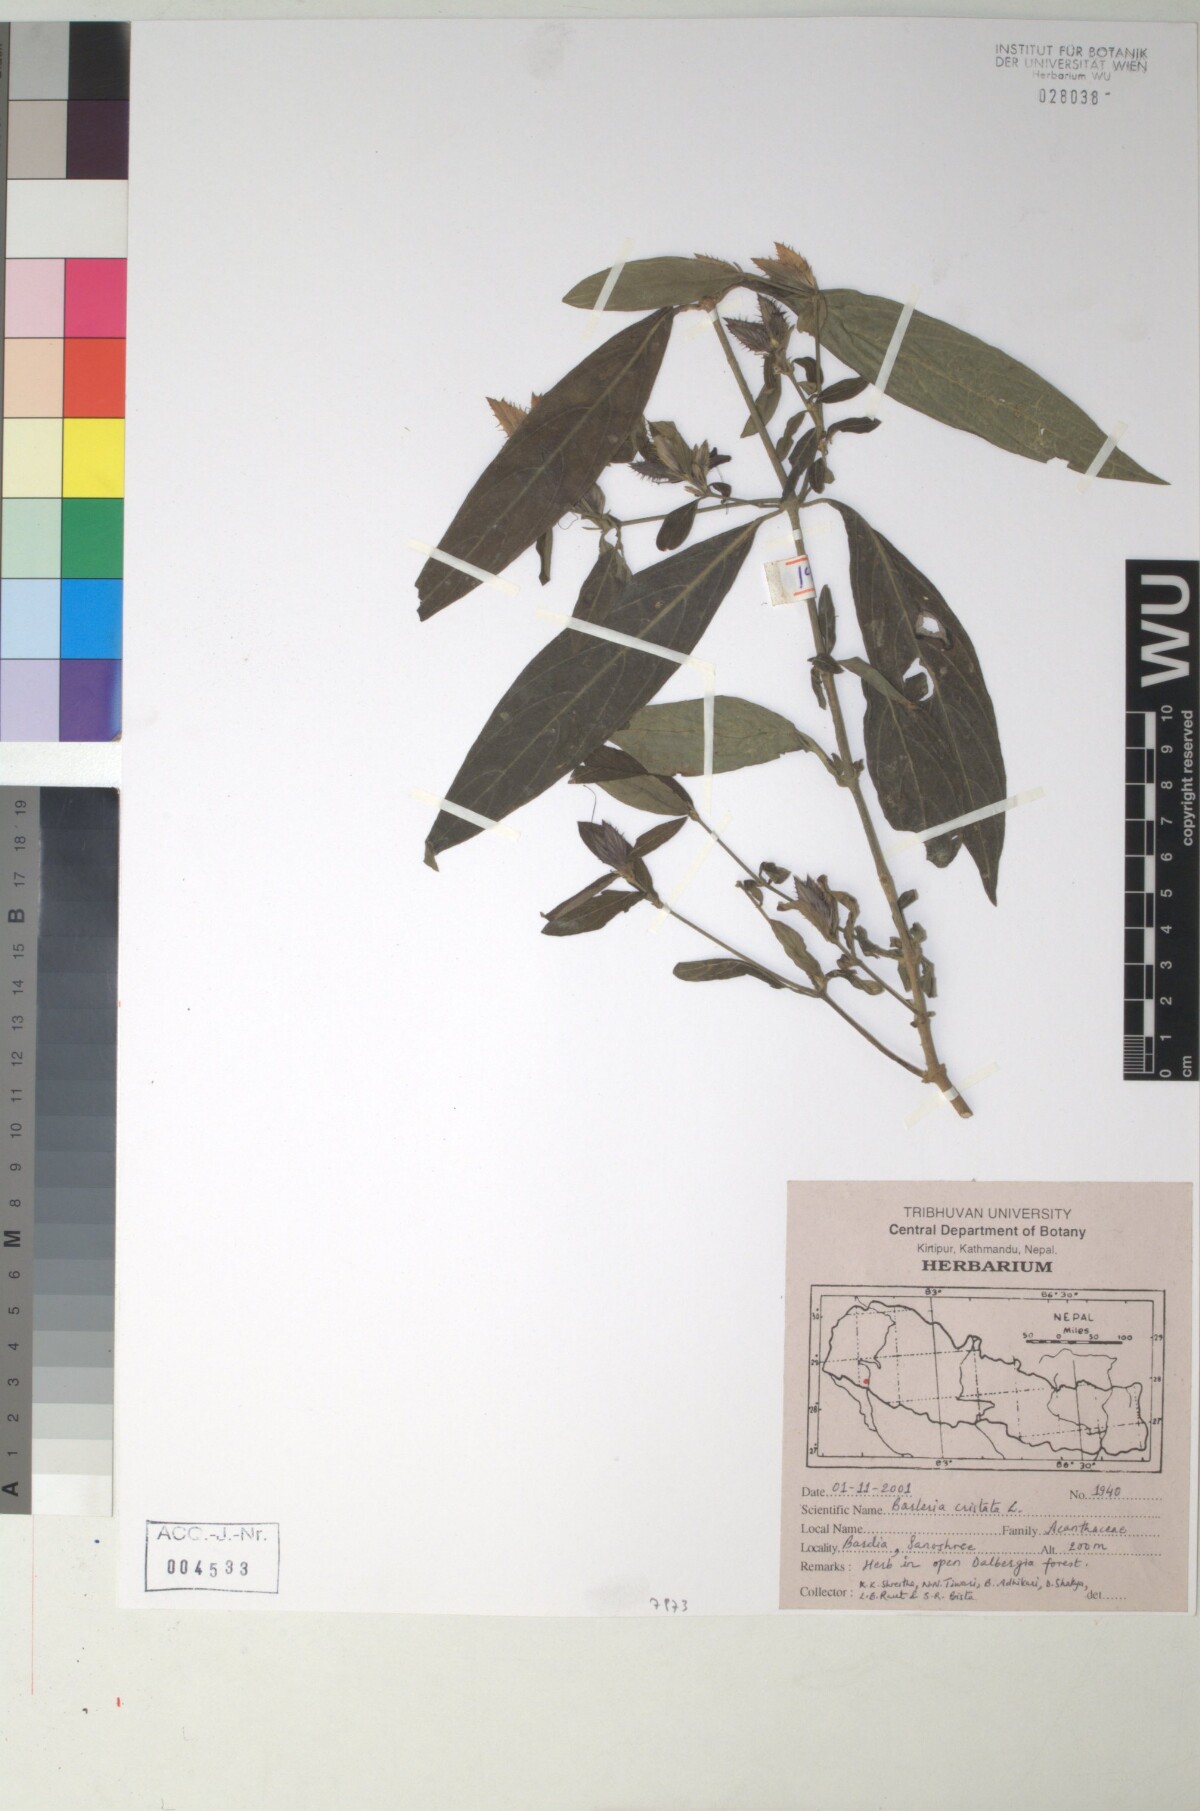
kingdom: Plantae
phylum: Tracheophyta
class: Magnoliopsida
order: Lamiales
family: Acanthaceae
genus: Barleria
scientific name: Barleria cristata
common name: Crested philippine violet
